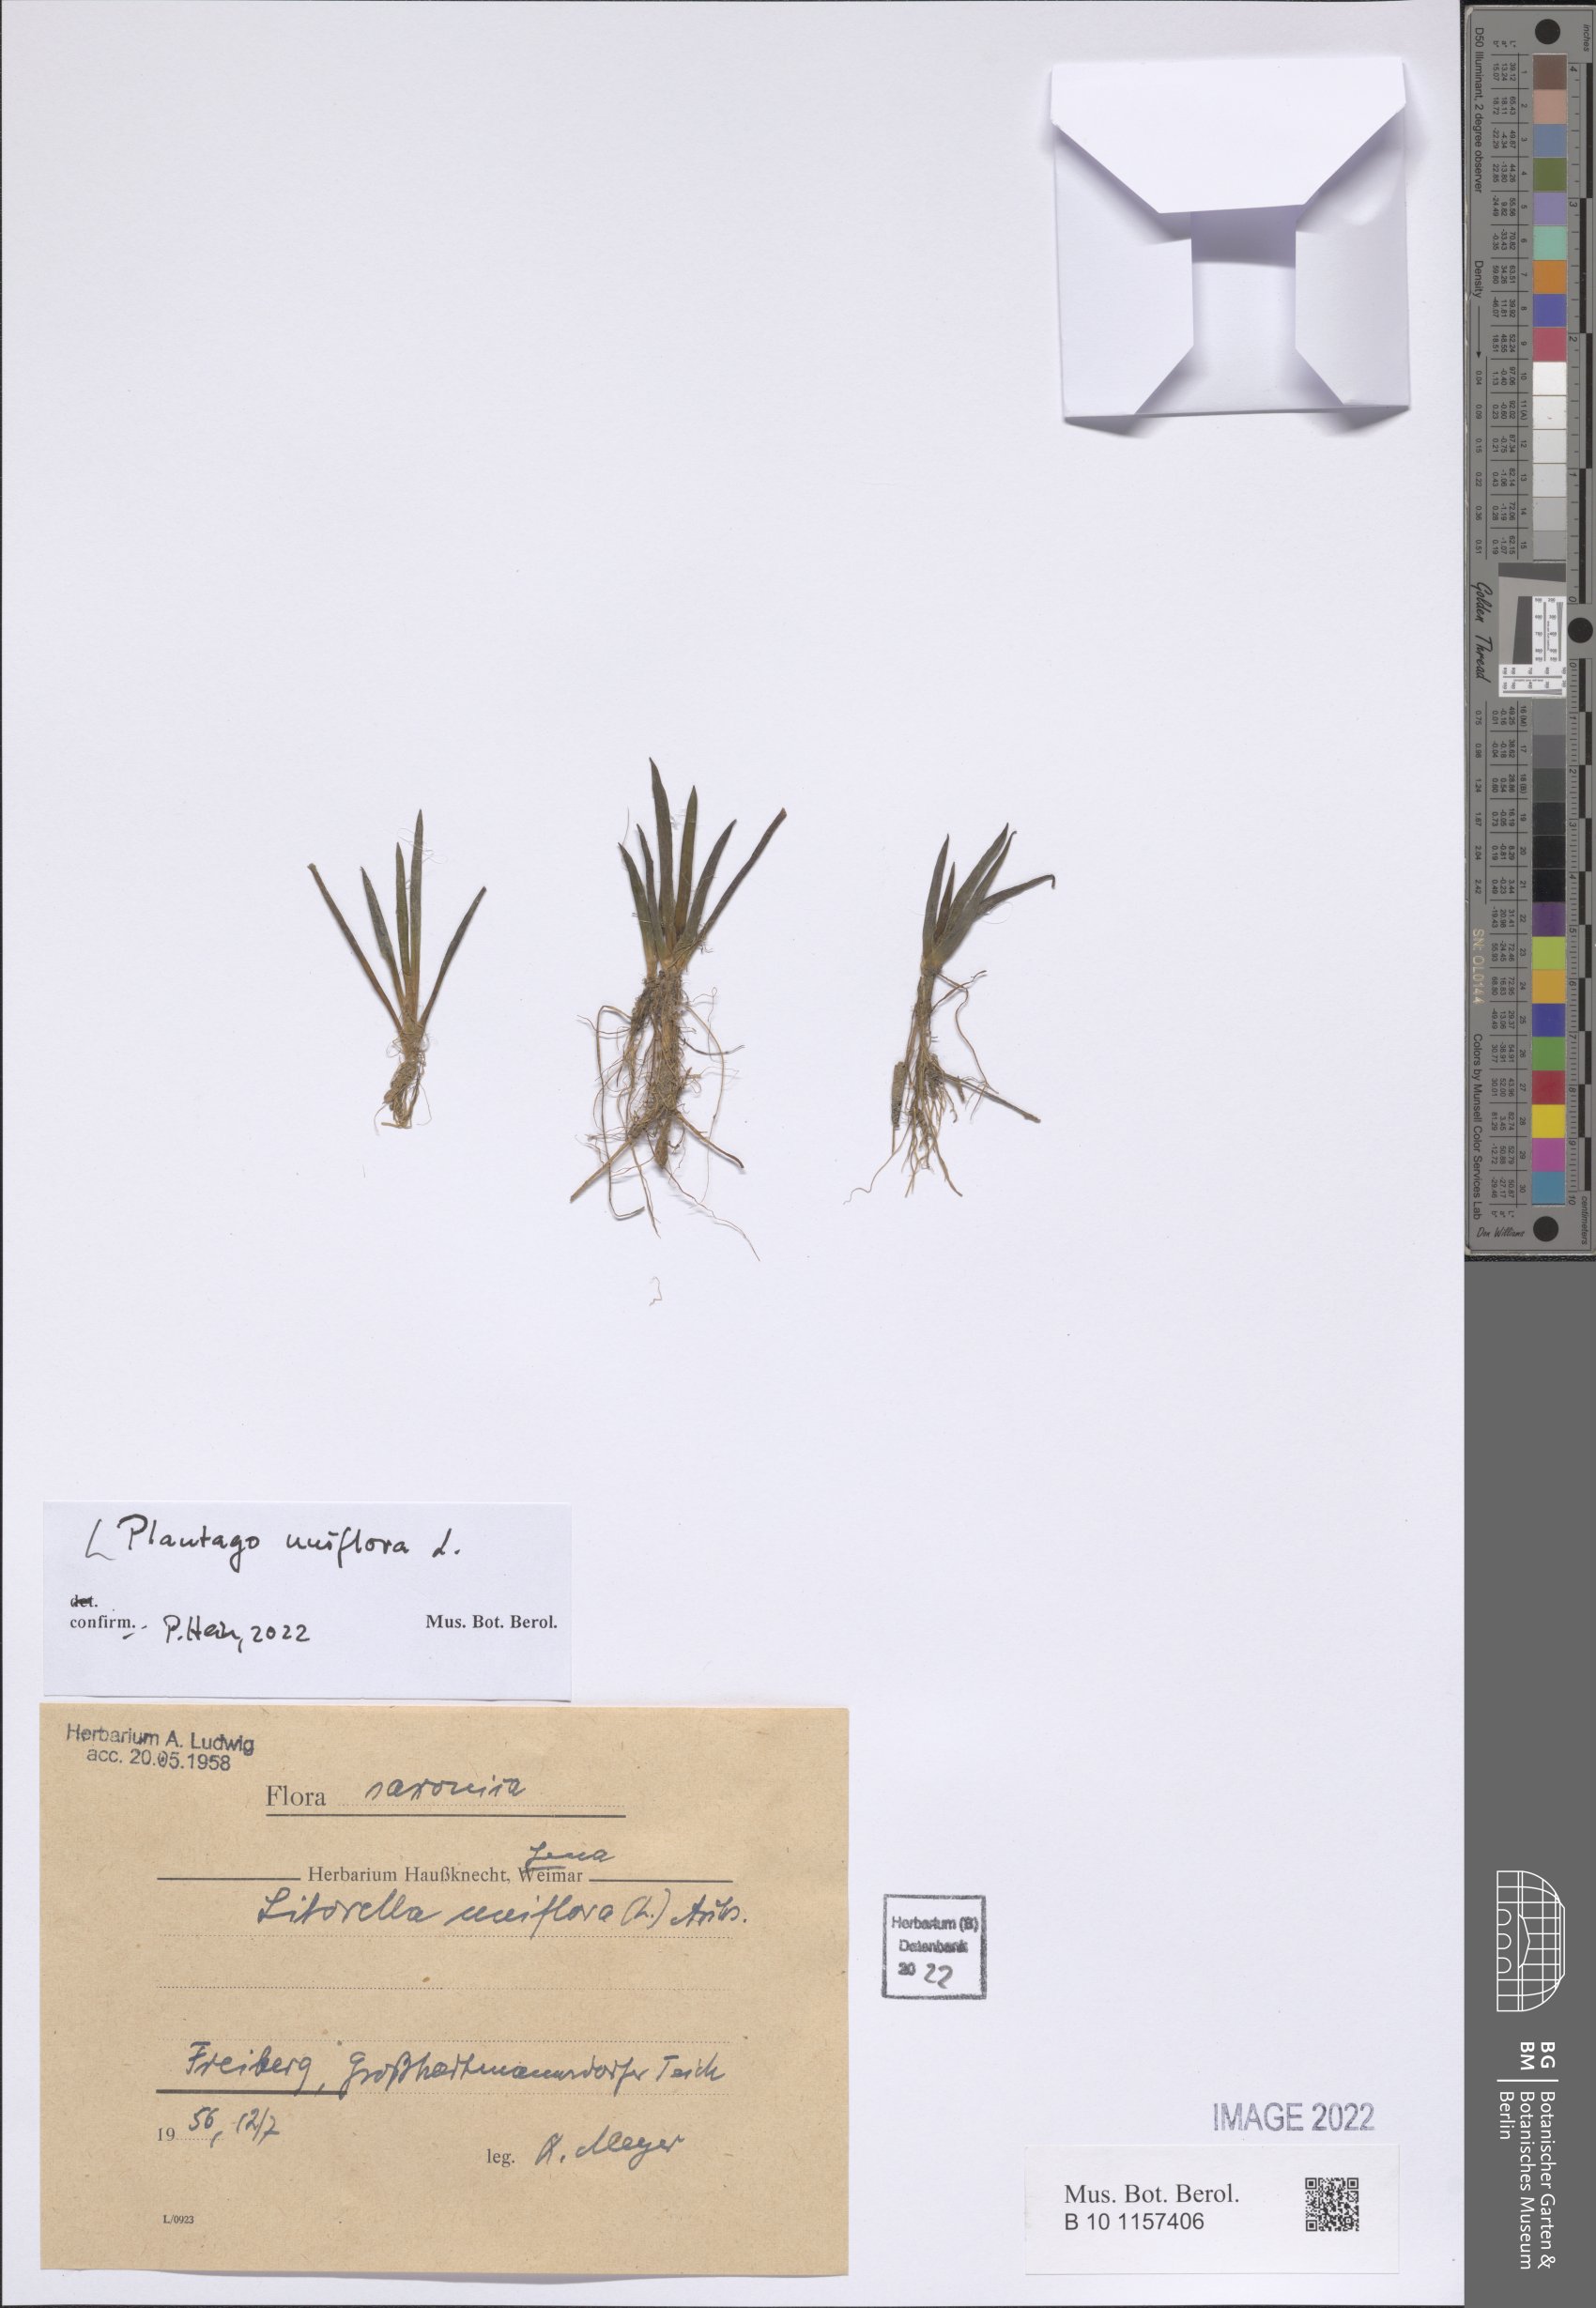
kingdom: Plantae
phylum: Tracheophyta
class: Magnoliopsida
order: Lamiales
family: Plantaginaceae
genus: Littorella
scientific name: Littorella uniflora
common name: Shoreweed
